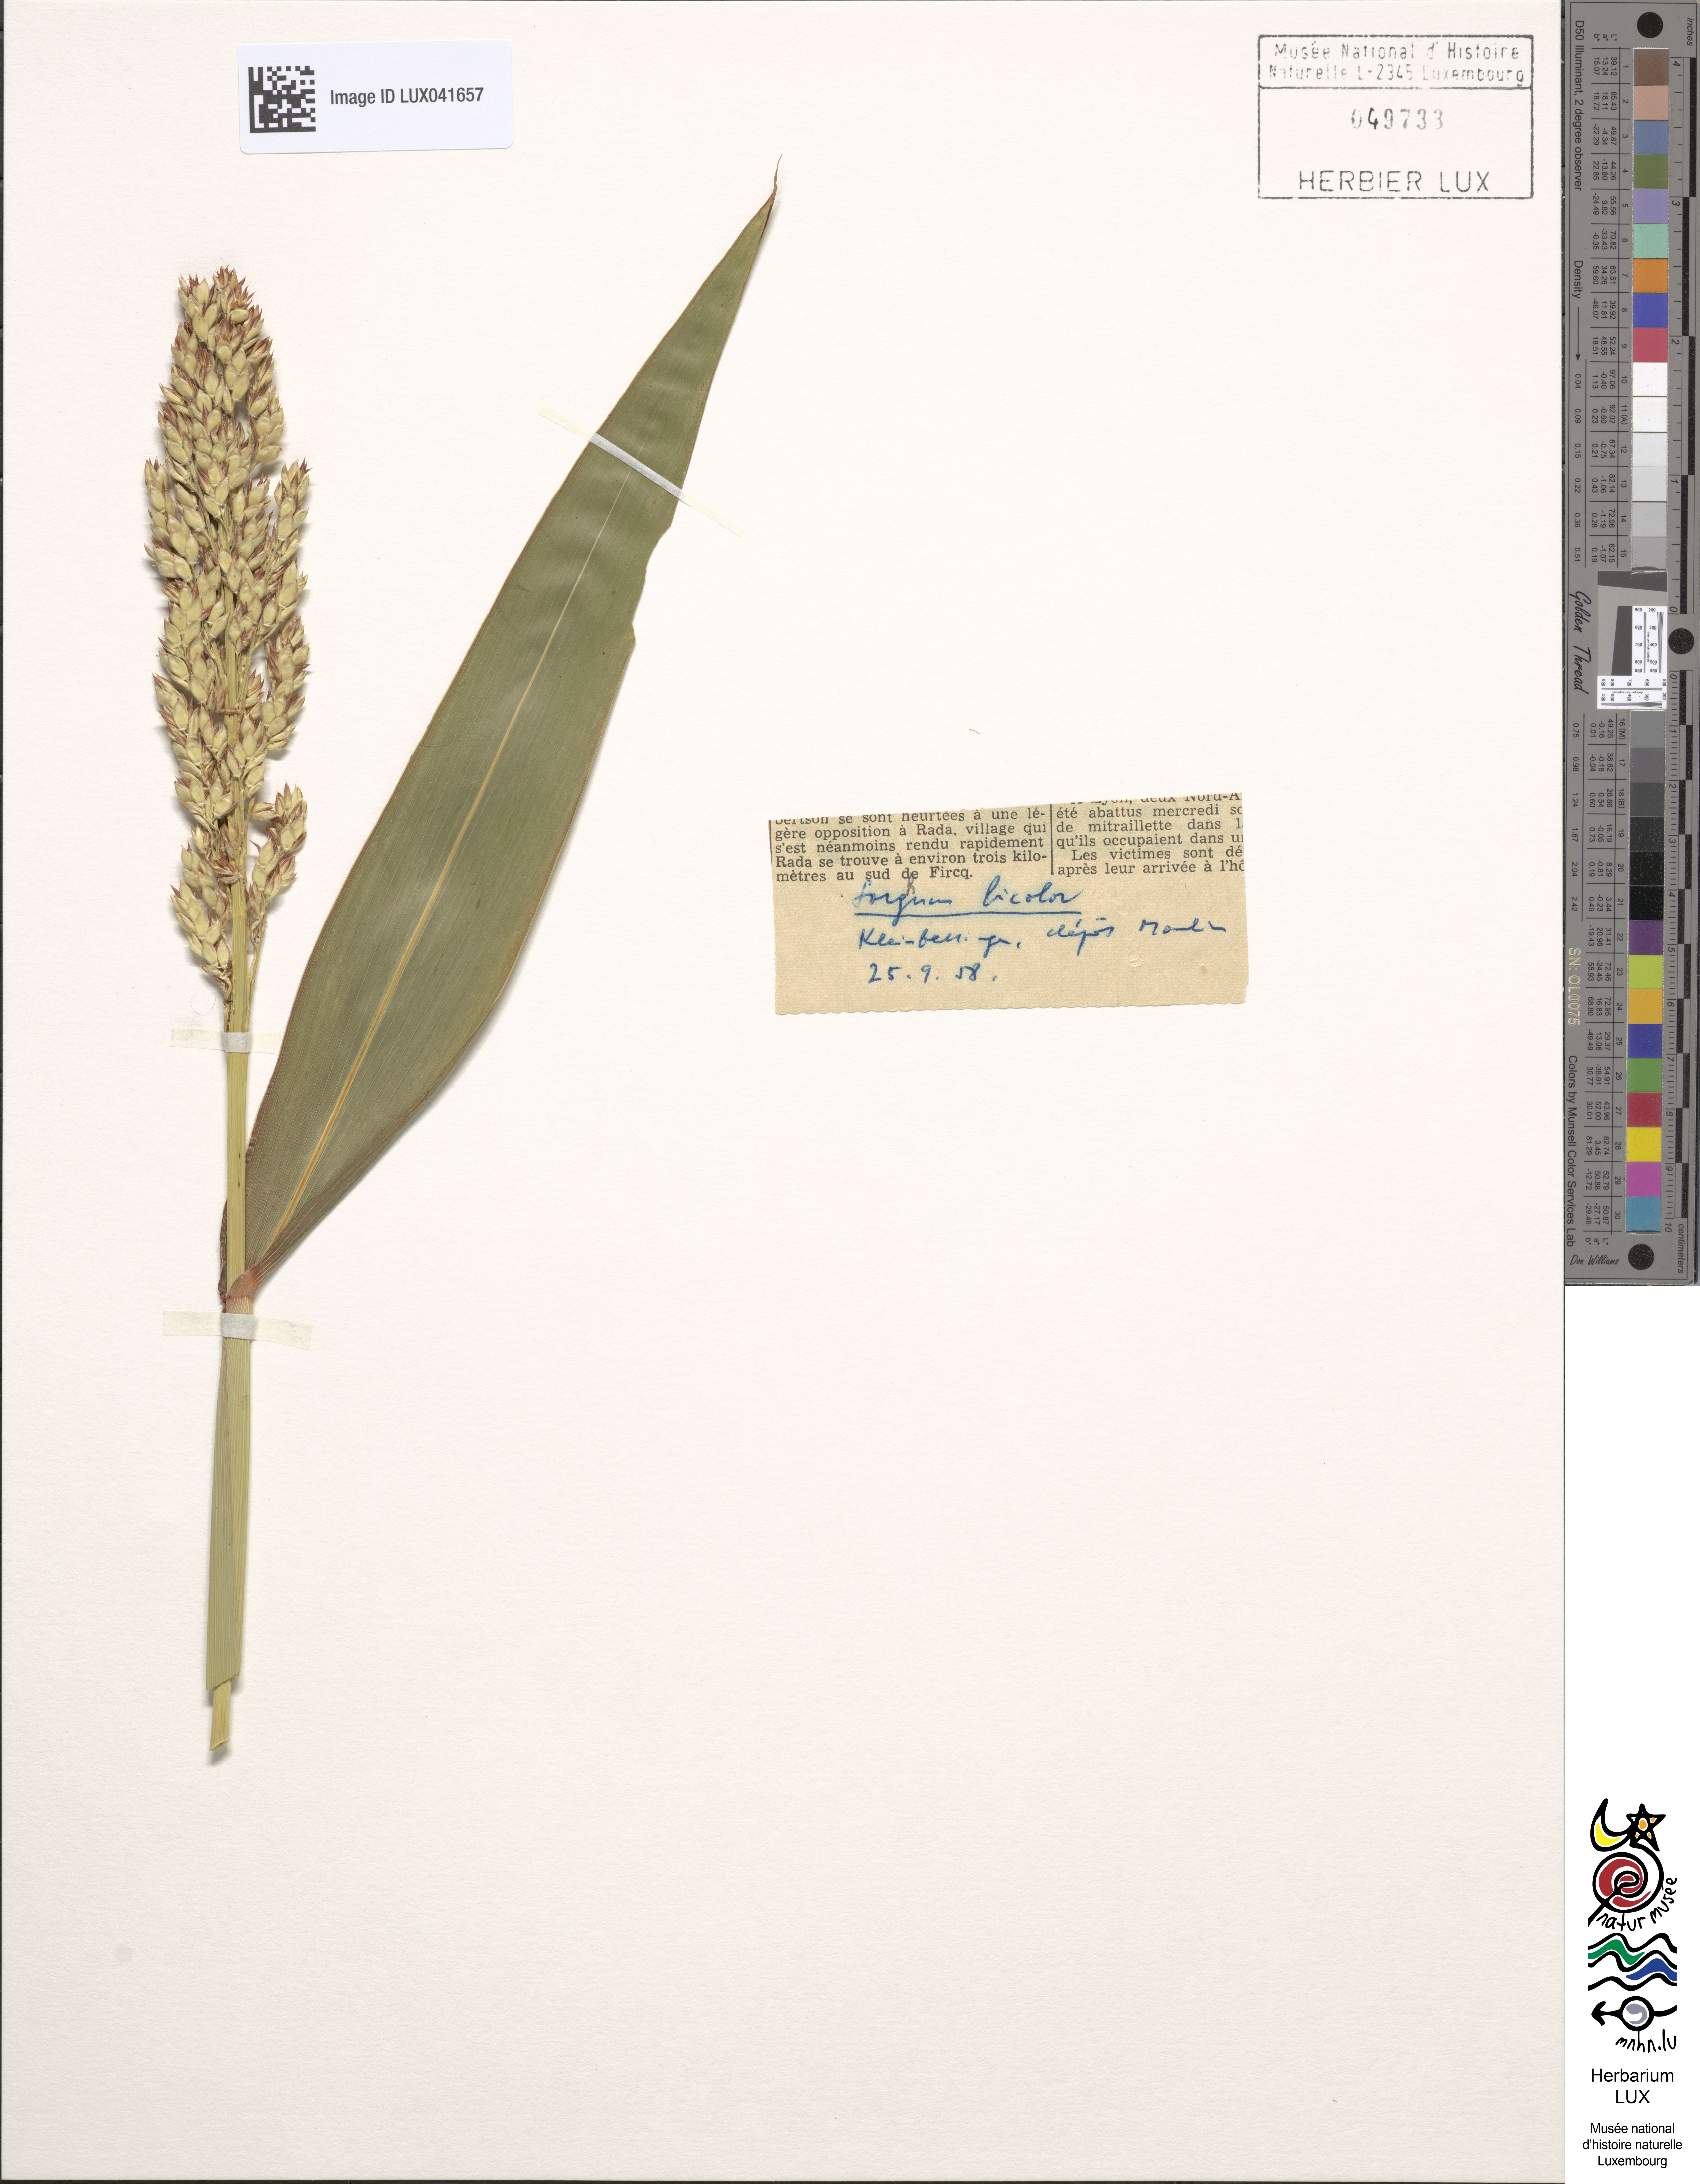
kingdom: Plantae
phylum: Tracheophyta
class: Liliopsida
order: Poales
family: Poaceae
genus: Sorghum
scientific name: Sorghum bicolor
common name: Sorghum
